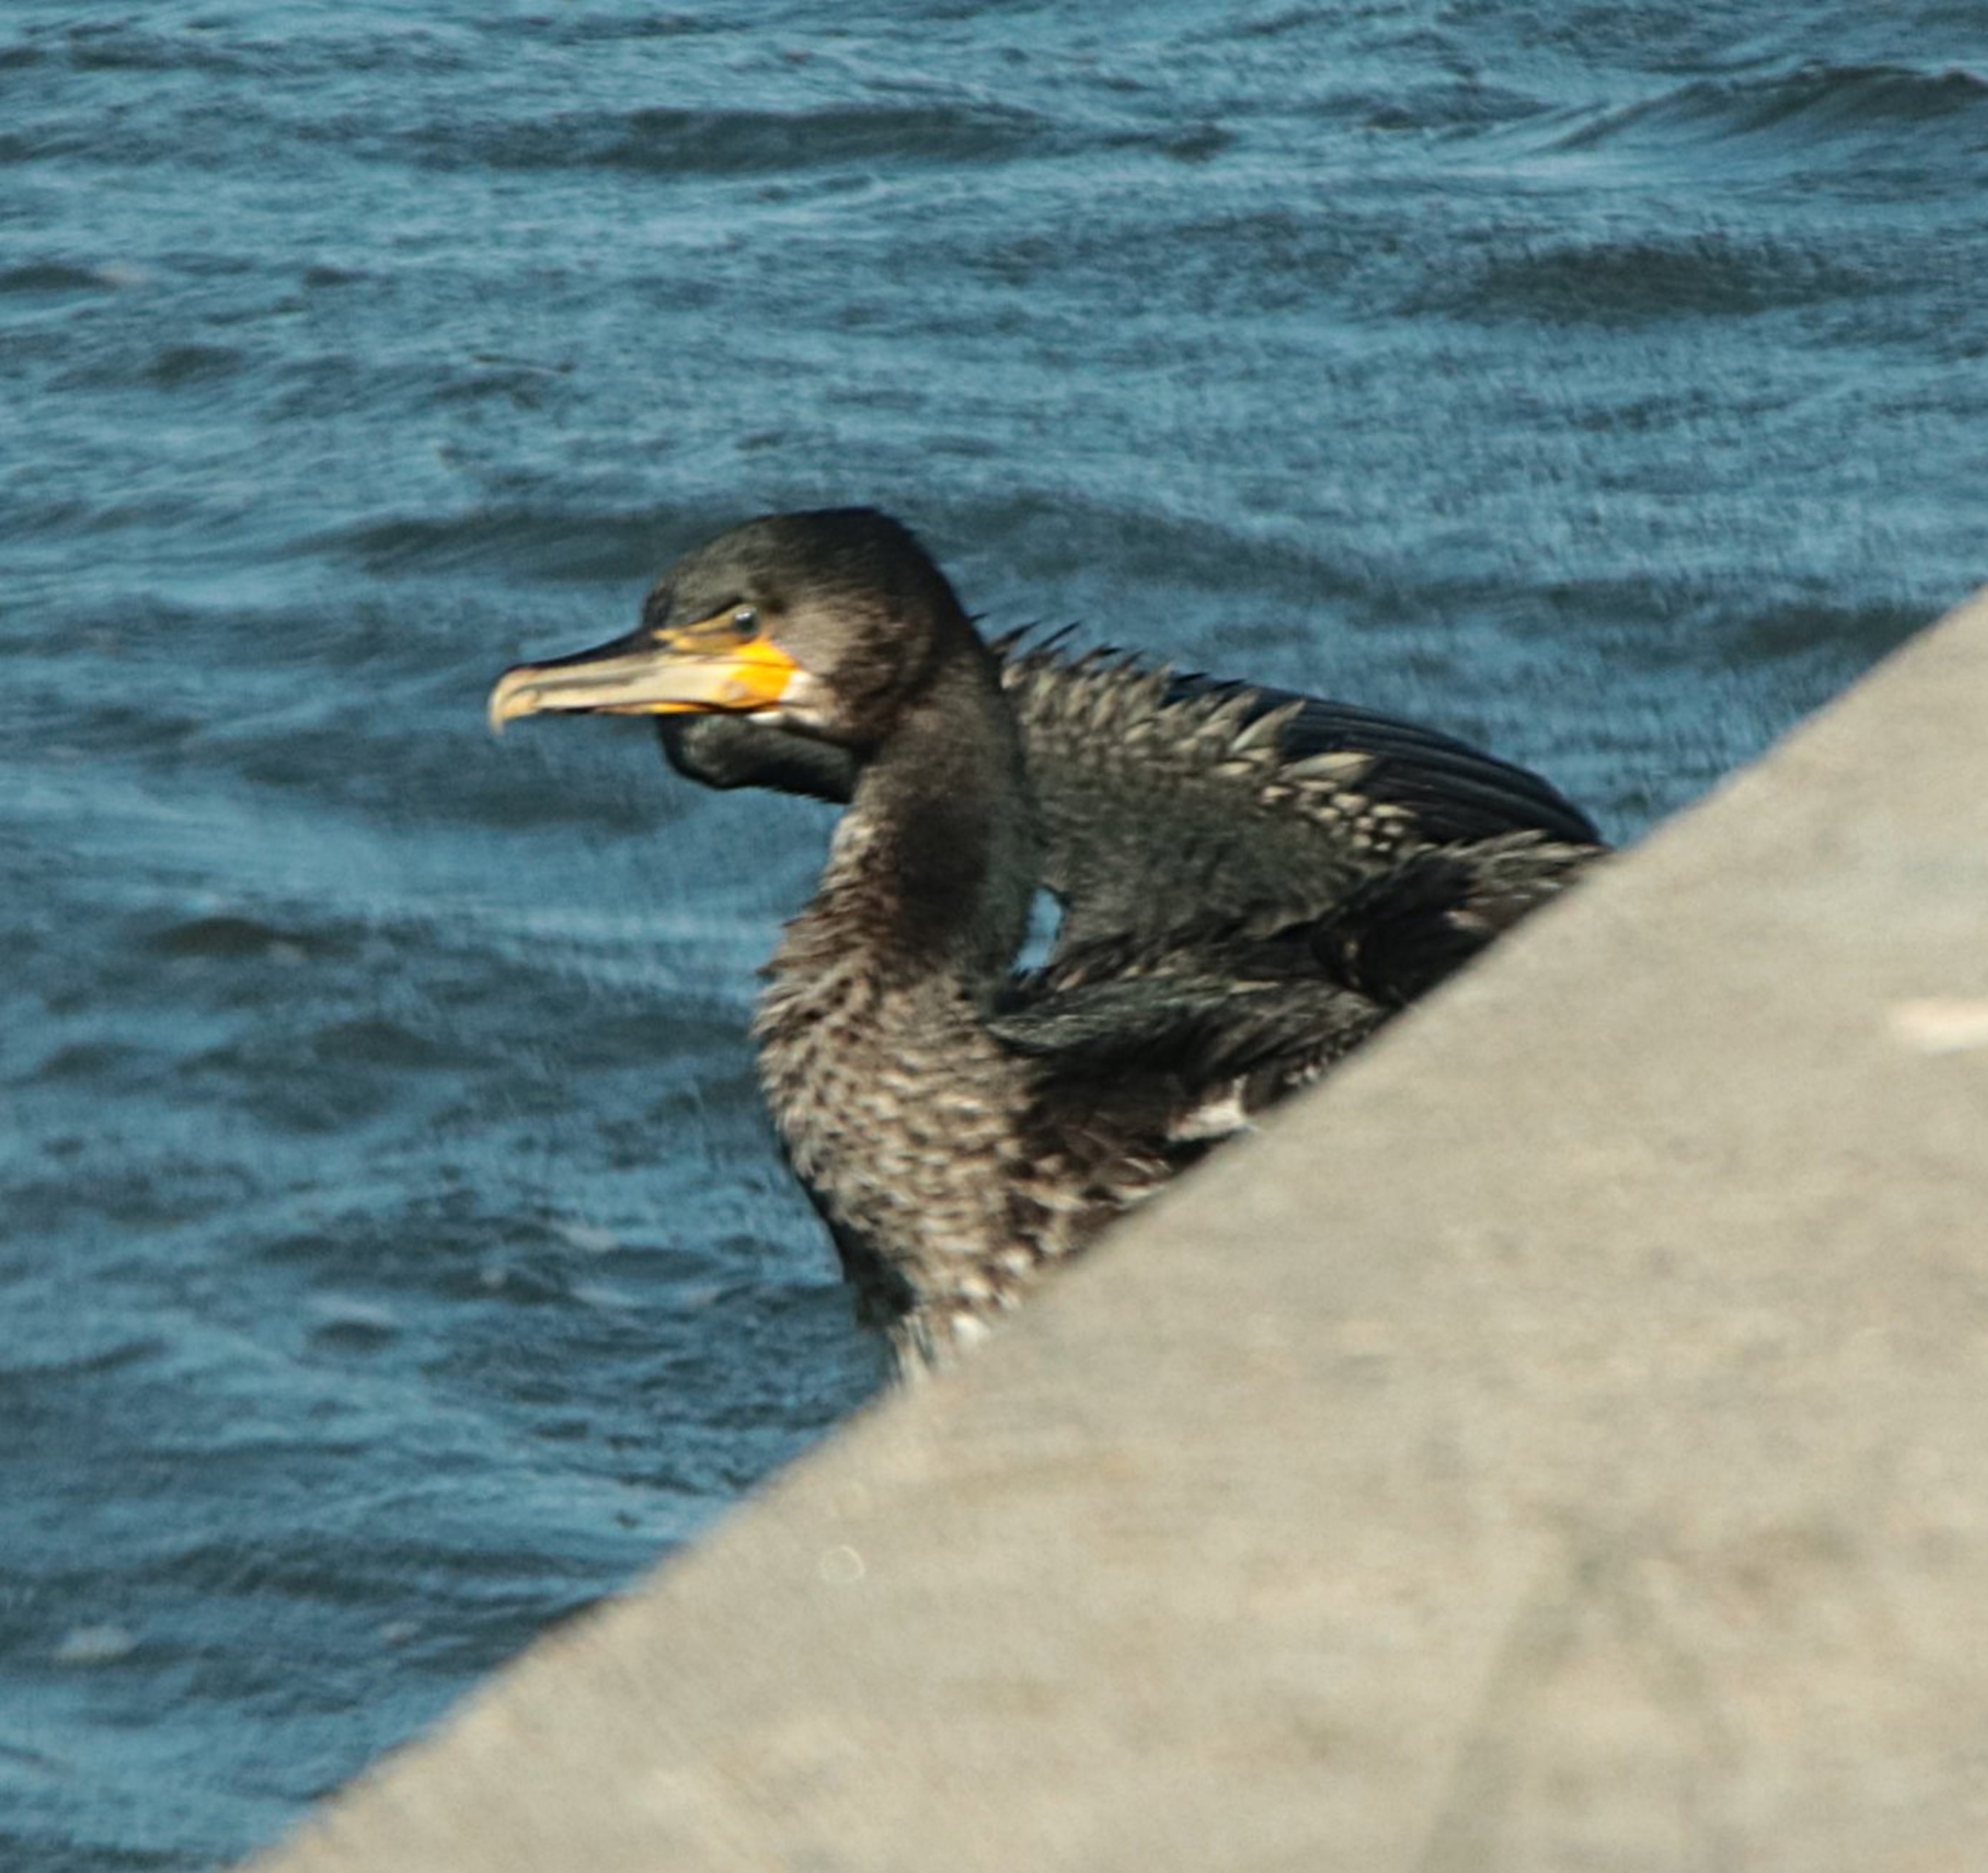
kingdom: Animalia
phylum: Chordata
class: Aves
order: Suliformes
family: Phalacrocoracidae
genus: Phalacrocorax
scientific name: Phalacrocorax carbo
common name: Skarv
